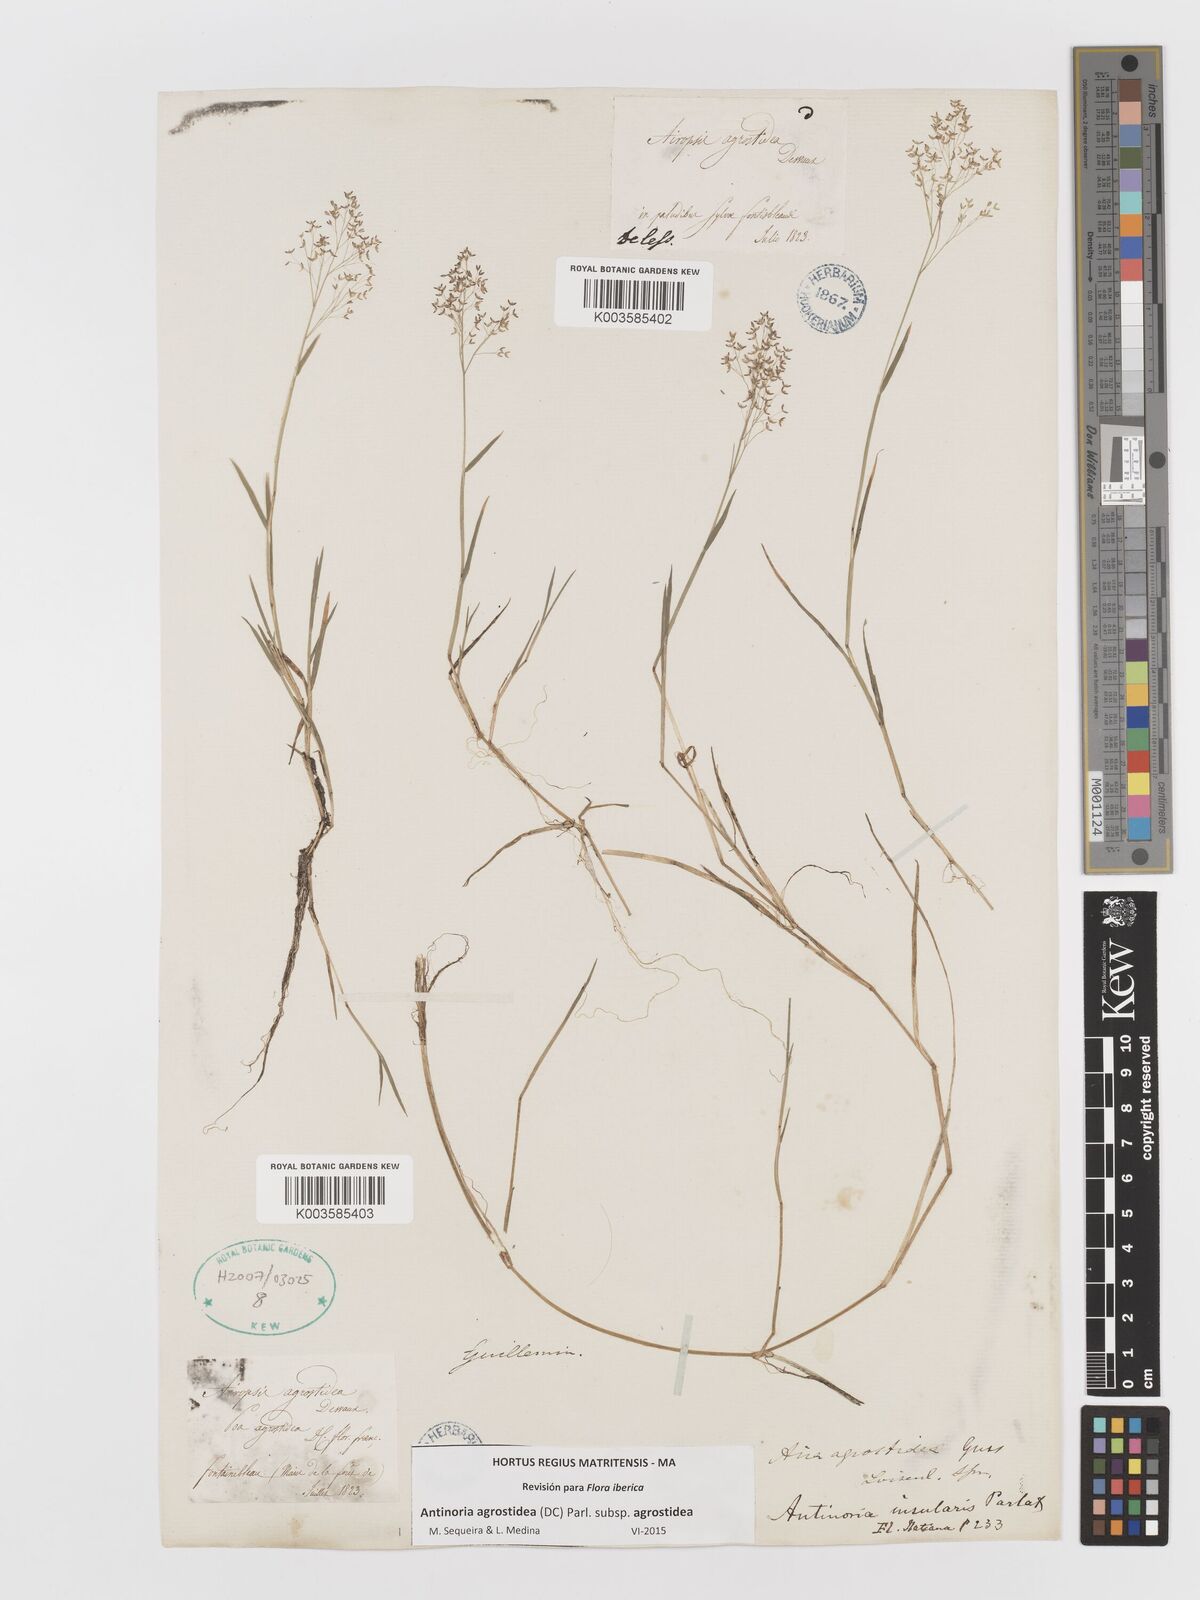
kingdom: Plantae
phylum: Tracheophyta
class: Liliopsida
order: Poales
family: Poaceae
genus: Antinoria
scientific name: Antinoria agrostidea
